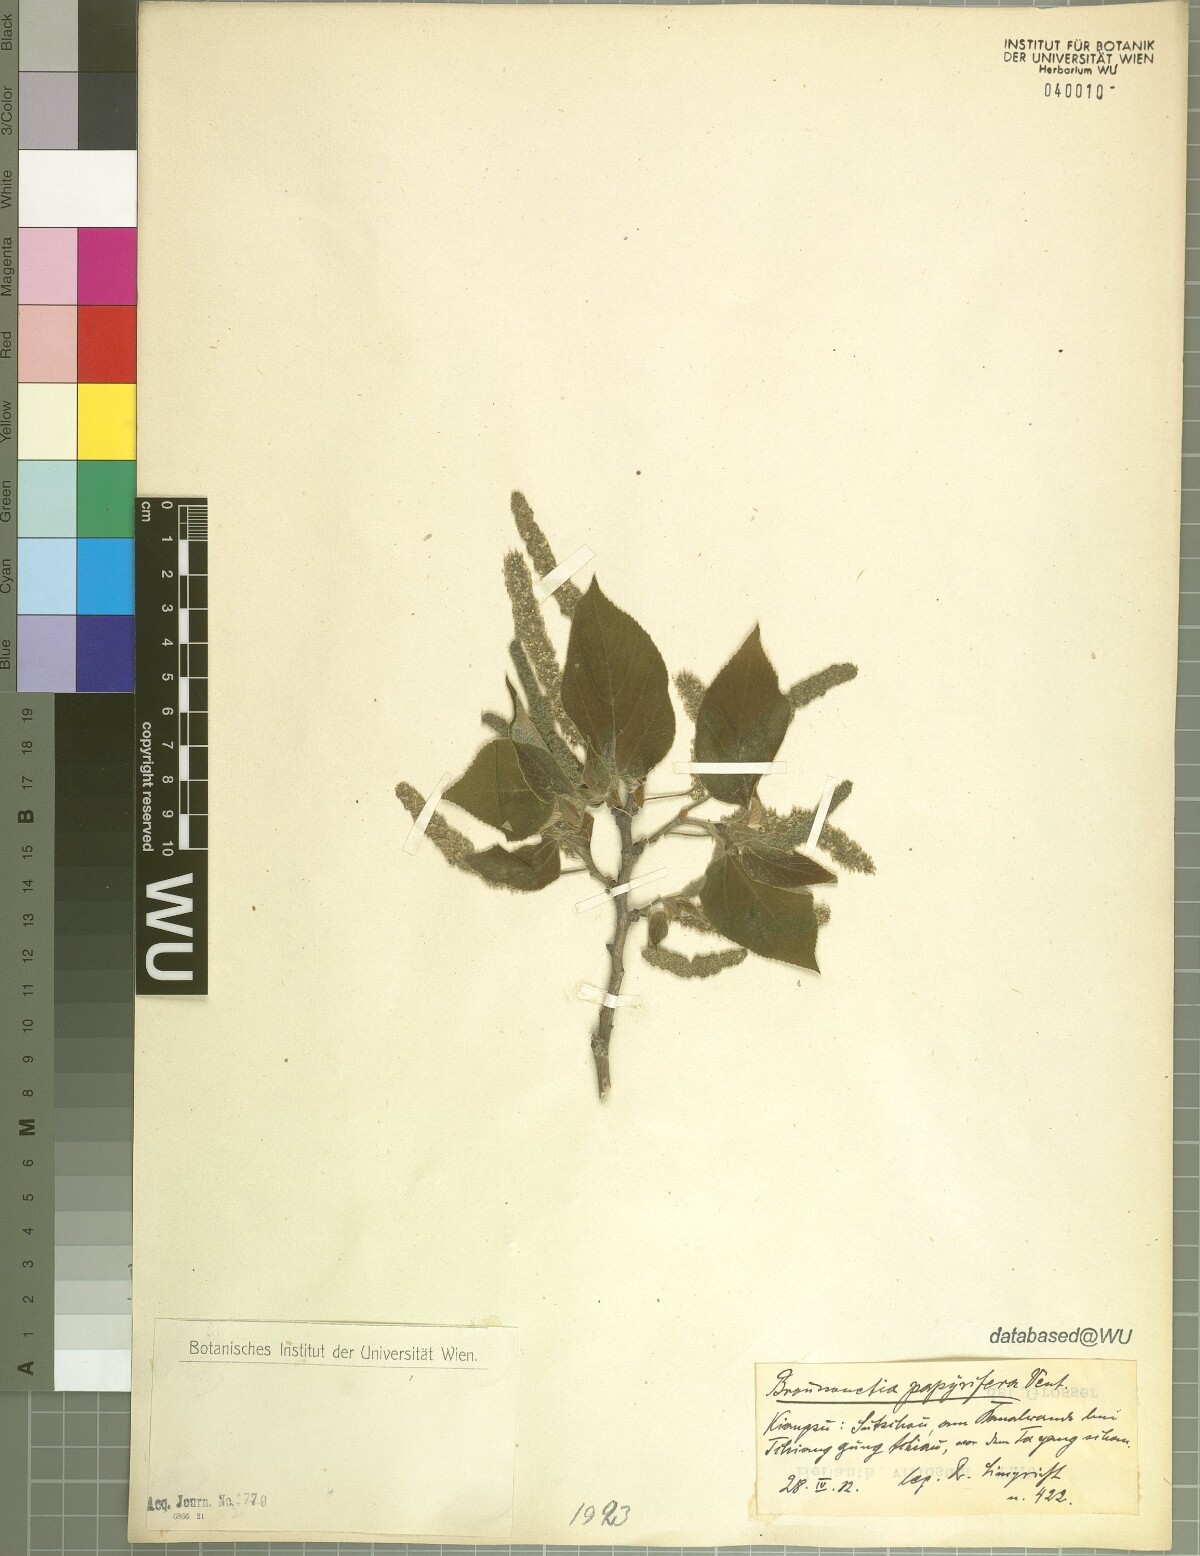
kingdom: Plantae
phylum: Tracheophyta
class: Magnoliopsida
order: Rosales
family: Moraceae
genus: Broussonetia
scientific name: Broussonetia papyrifera
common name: Paper mulberry
